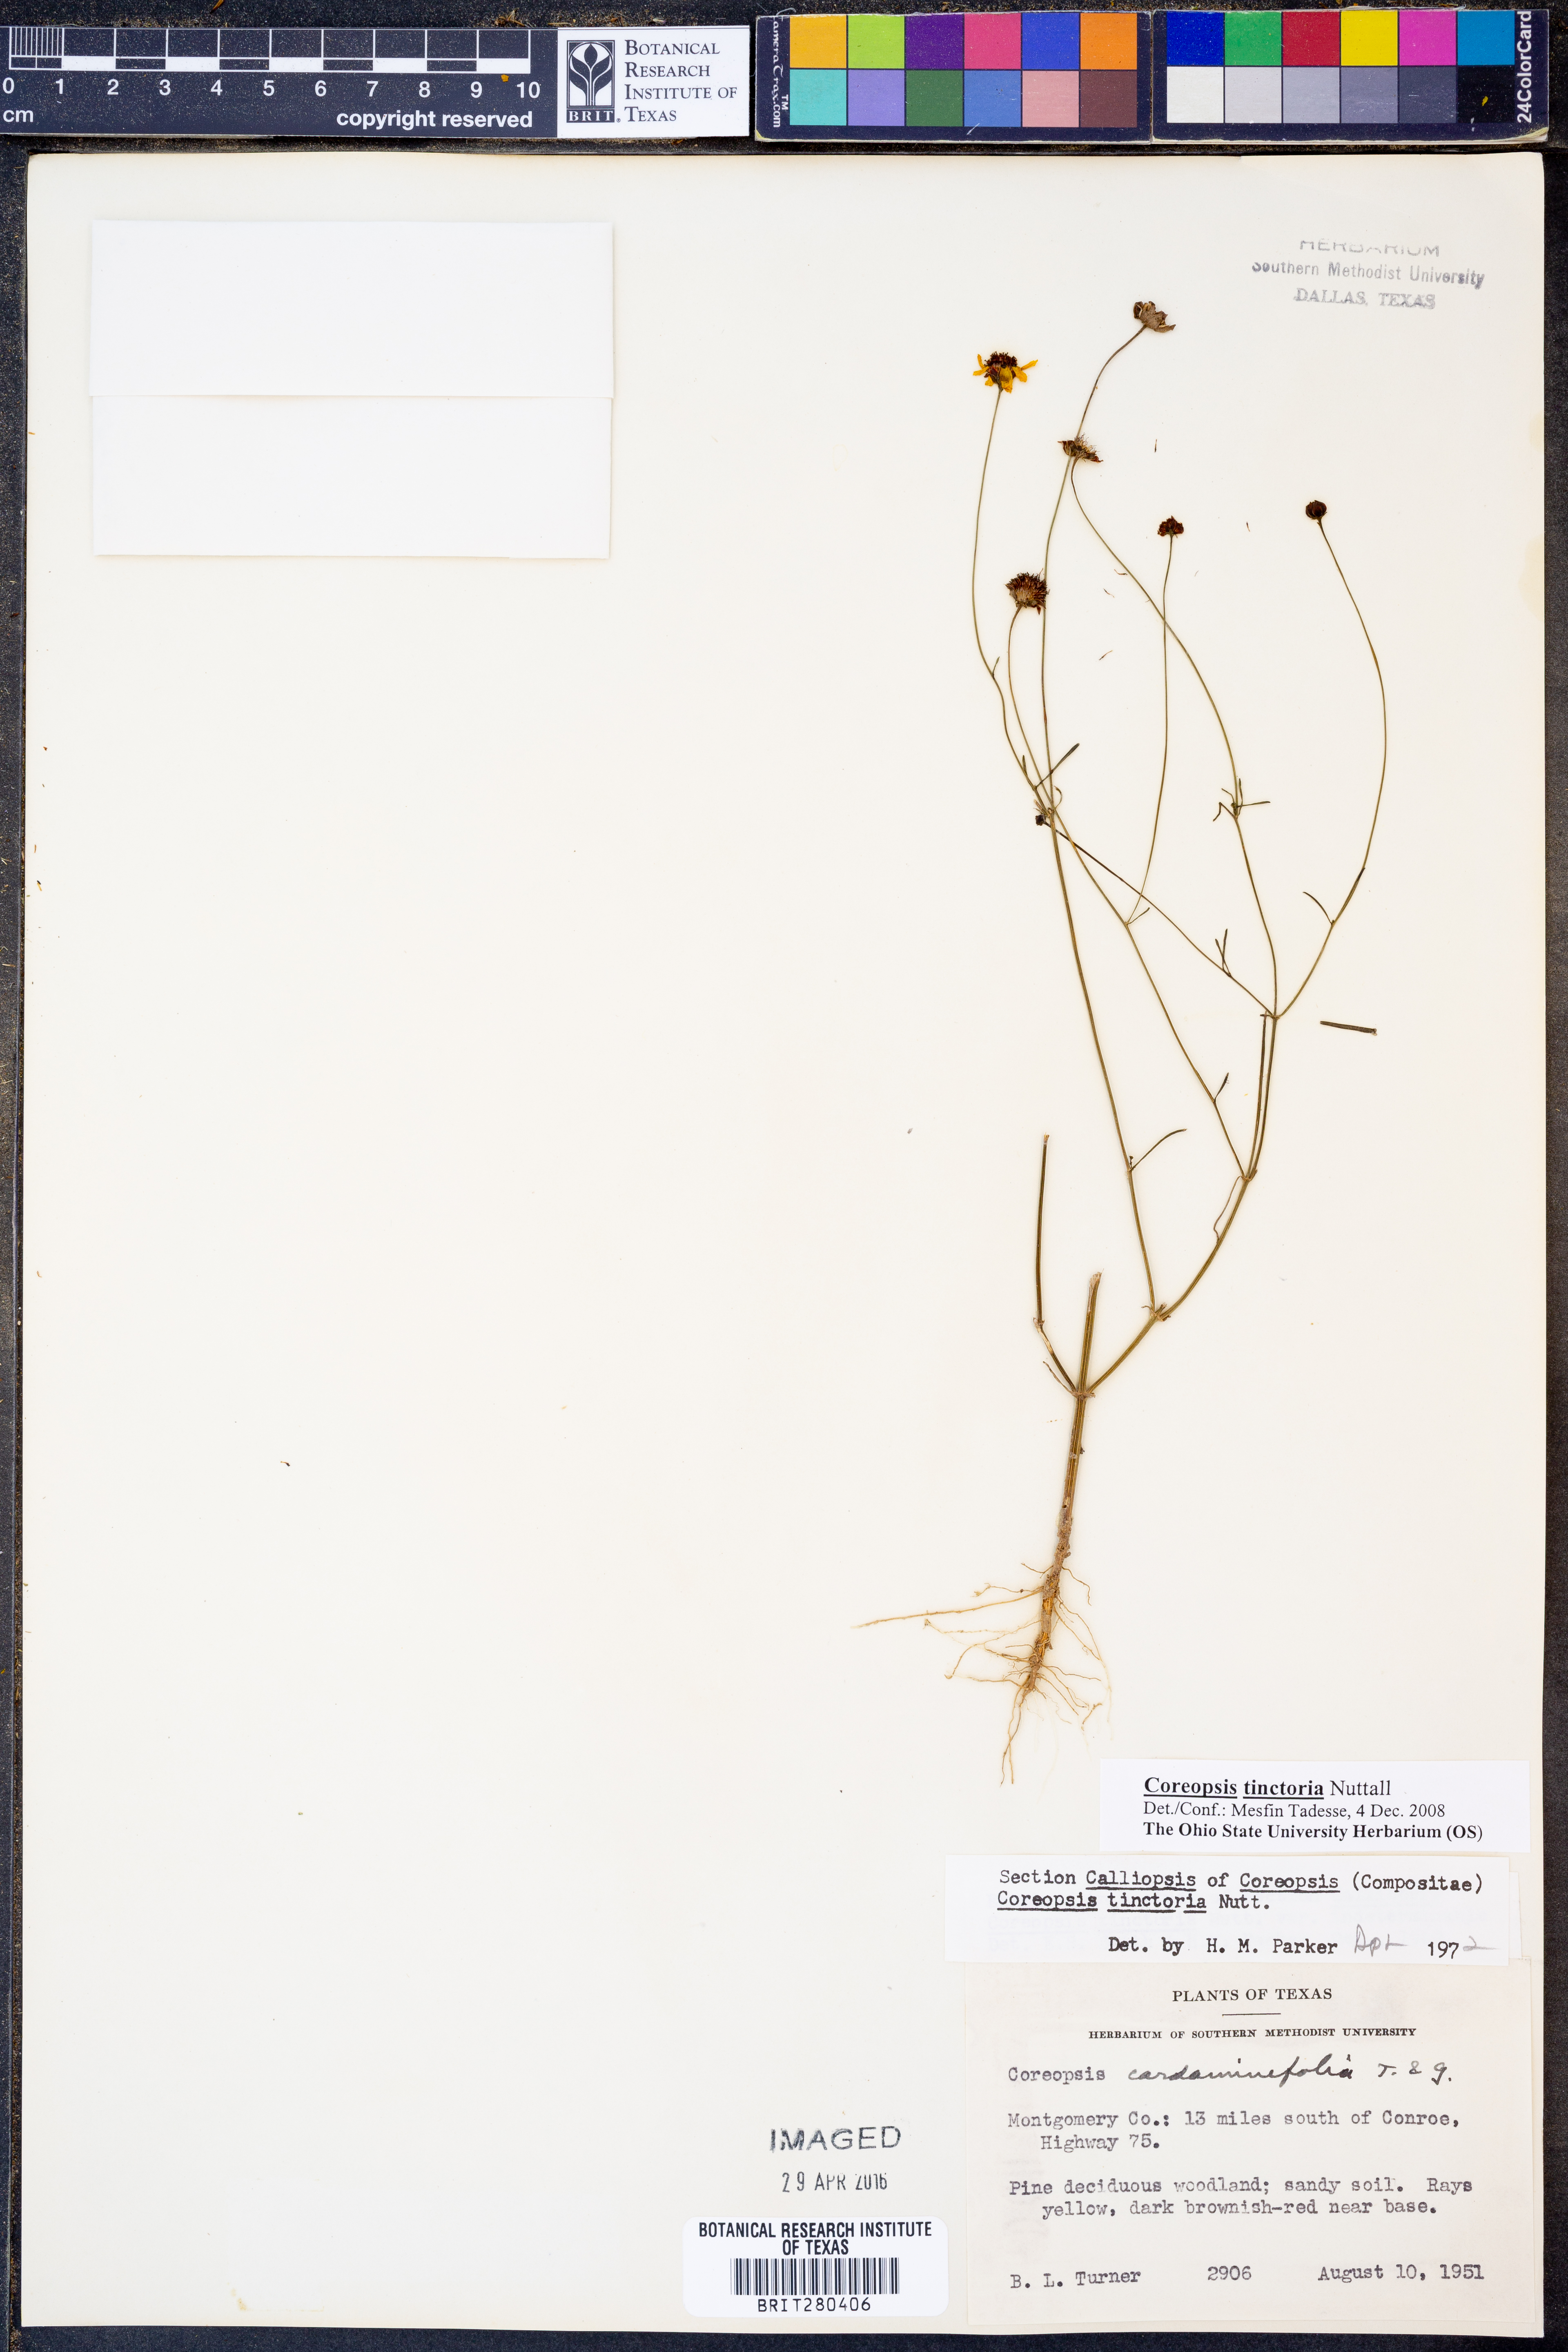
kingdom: Plantae
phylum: Tracheophyta
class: Magnoliopsida
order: Asterales
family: Asteraceae
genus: Coreopsis
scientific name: Coreopsis tinctoria
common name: Garden tickseed
